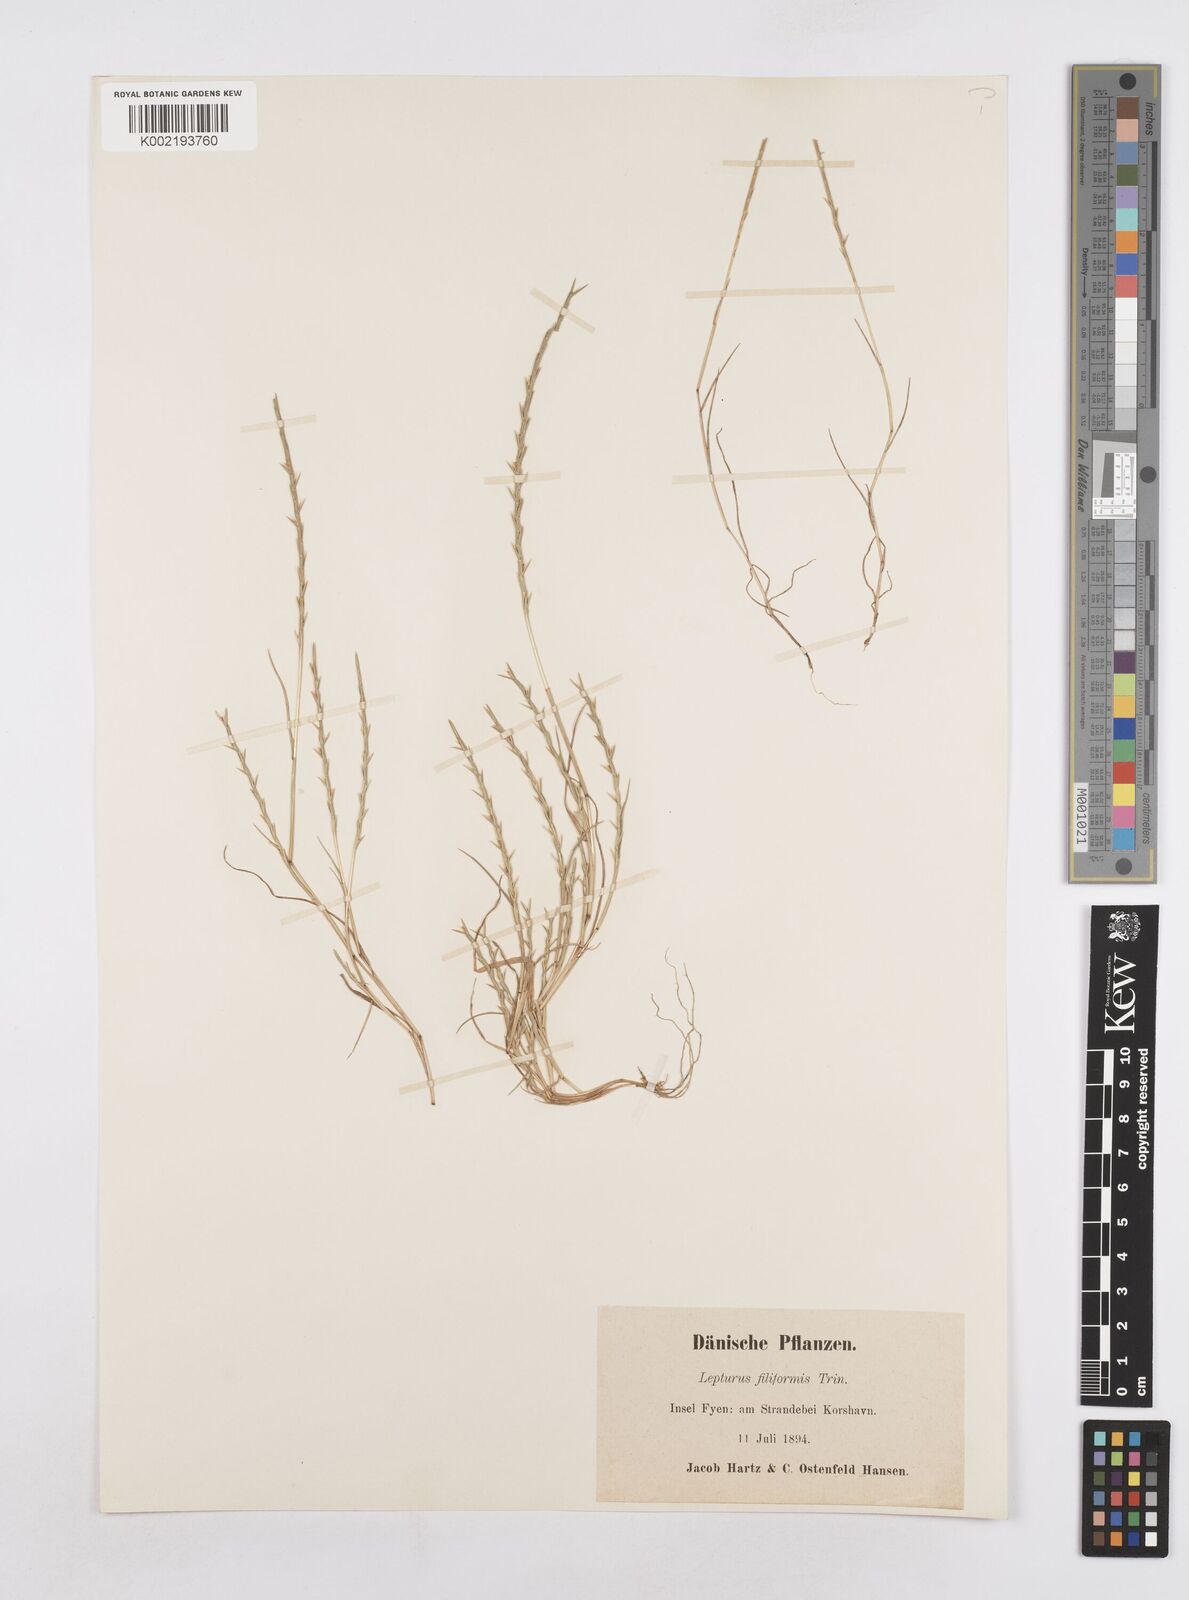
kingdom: Plantae
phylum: Tracheophyta
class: Liliopsida
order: Poales
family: Poaceae
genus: Parapholis
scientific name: Parapholis
